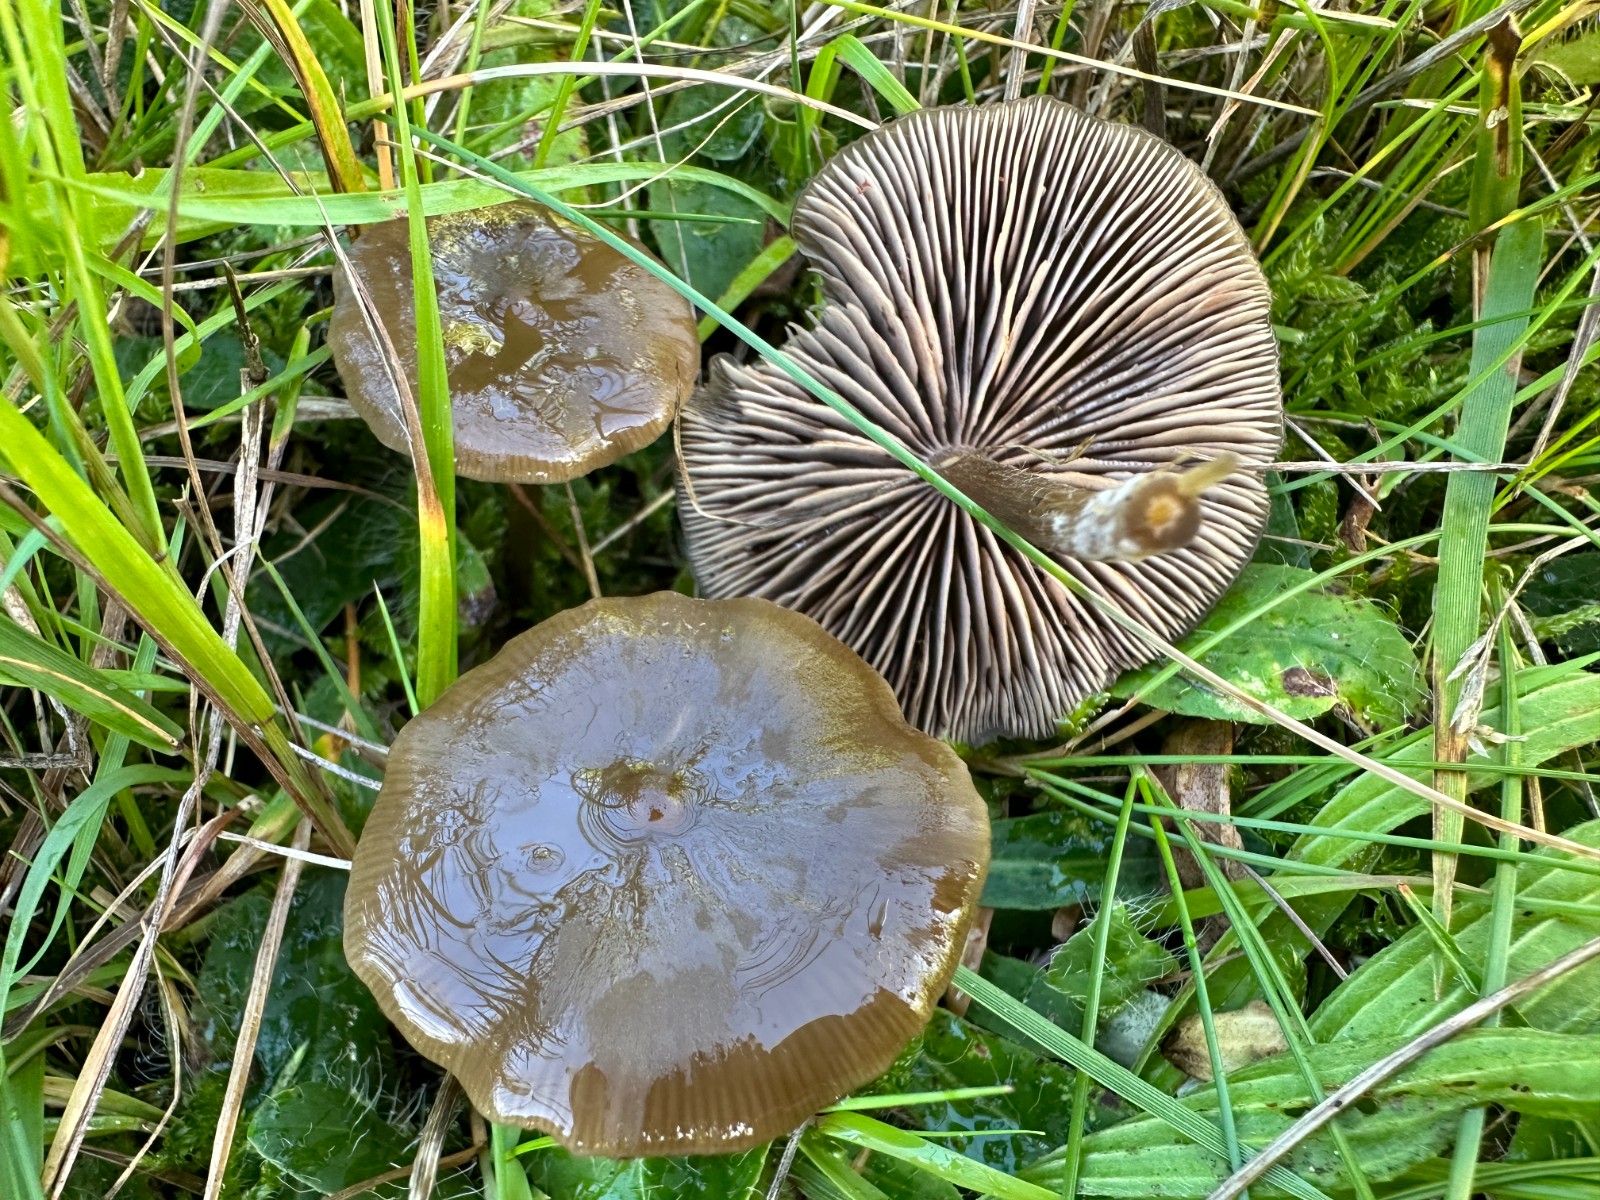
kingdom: Fungi
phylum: Basidiomycota
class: Agaricomycetes
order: Agaricales
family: Entolomataceae
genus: Entoloma
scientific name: Entoloma
